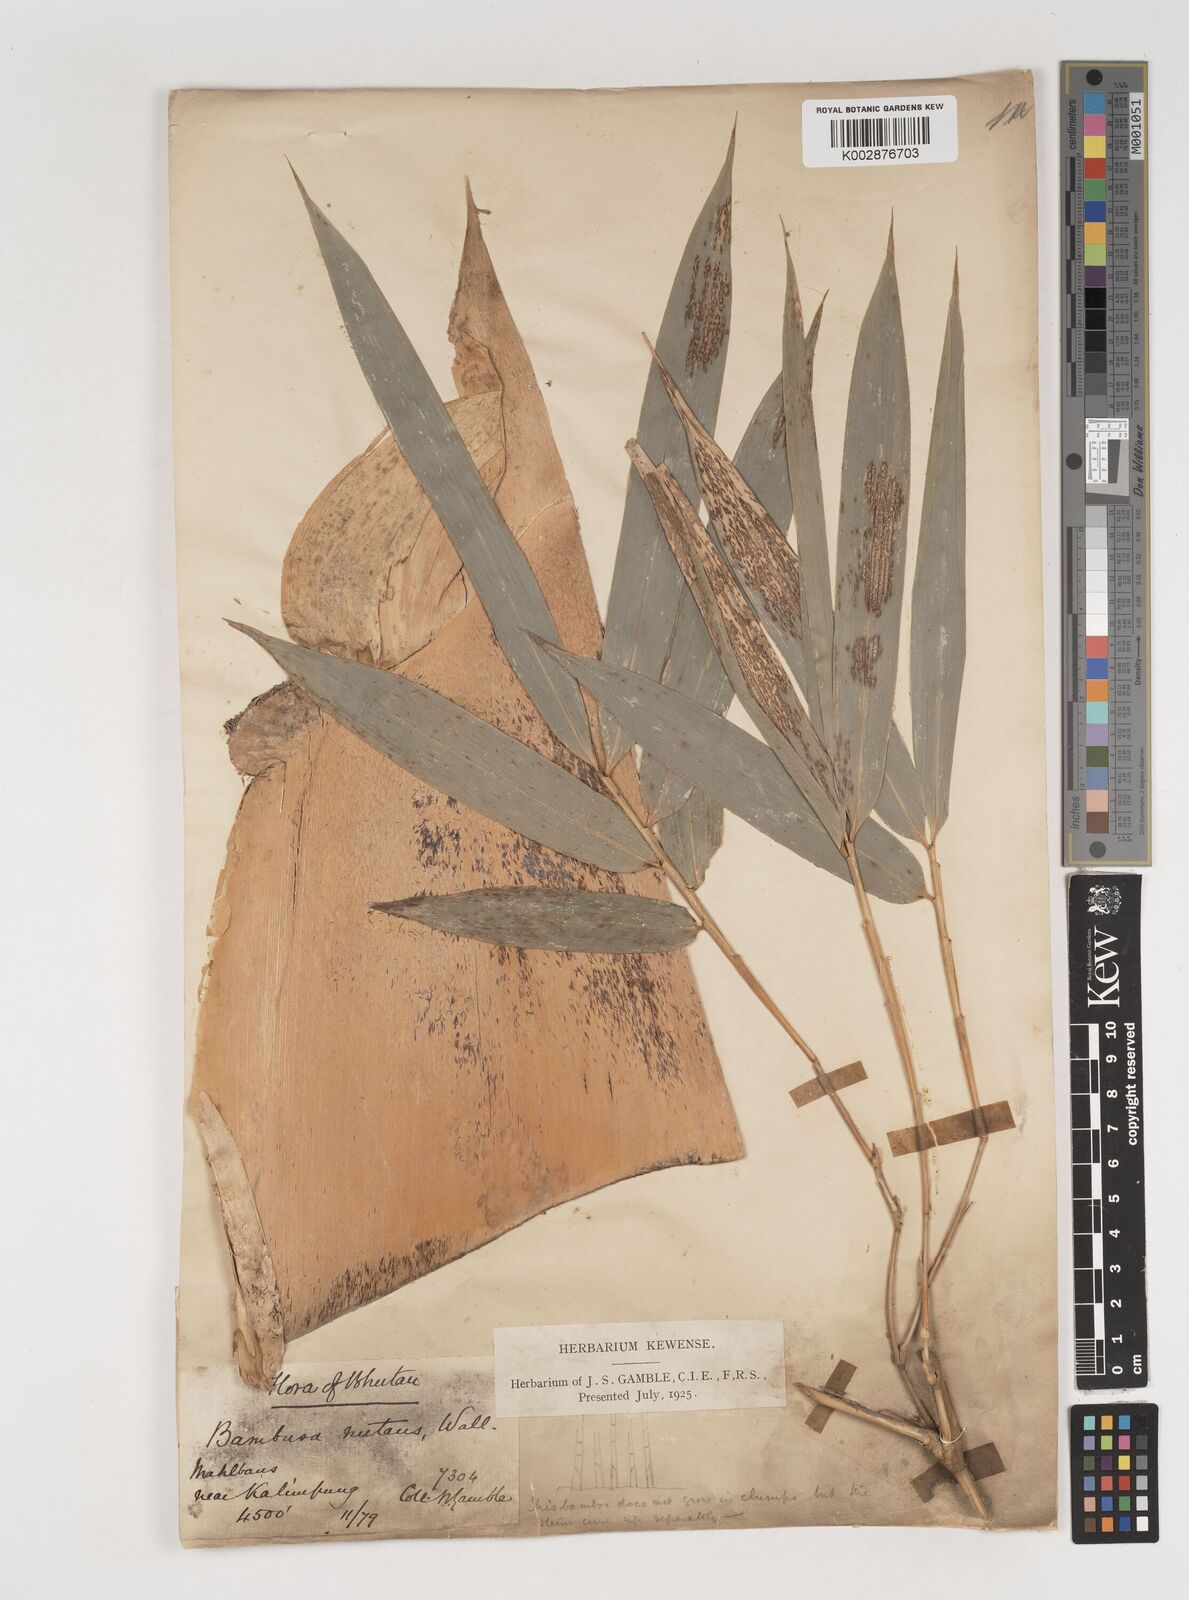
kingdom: Plantae
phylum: Tracheophyta
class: Liliopsida
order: Poales
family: Poaceae
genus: Bambusa
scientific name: Bambusa nutans
